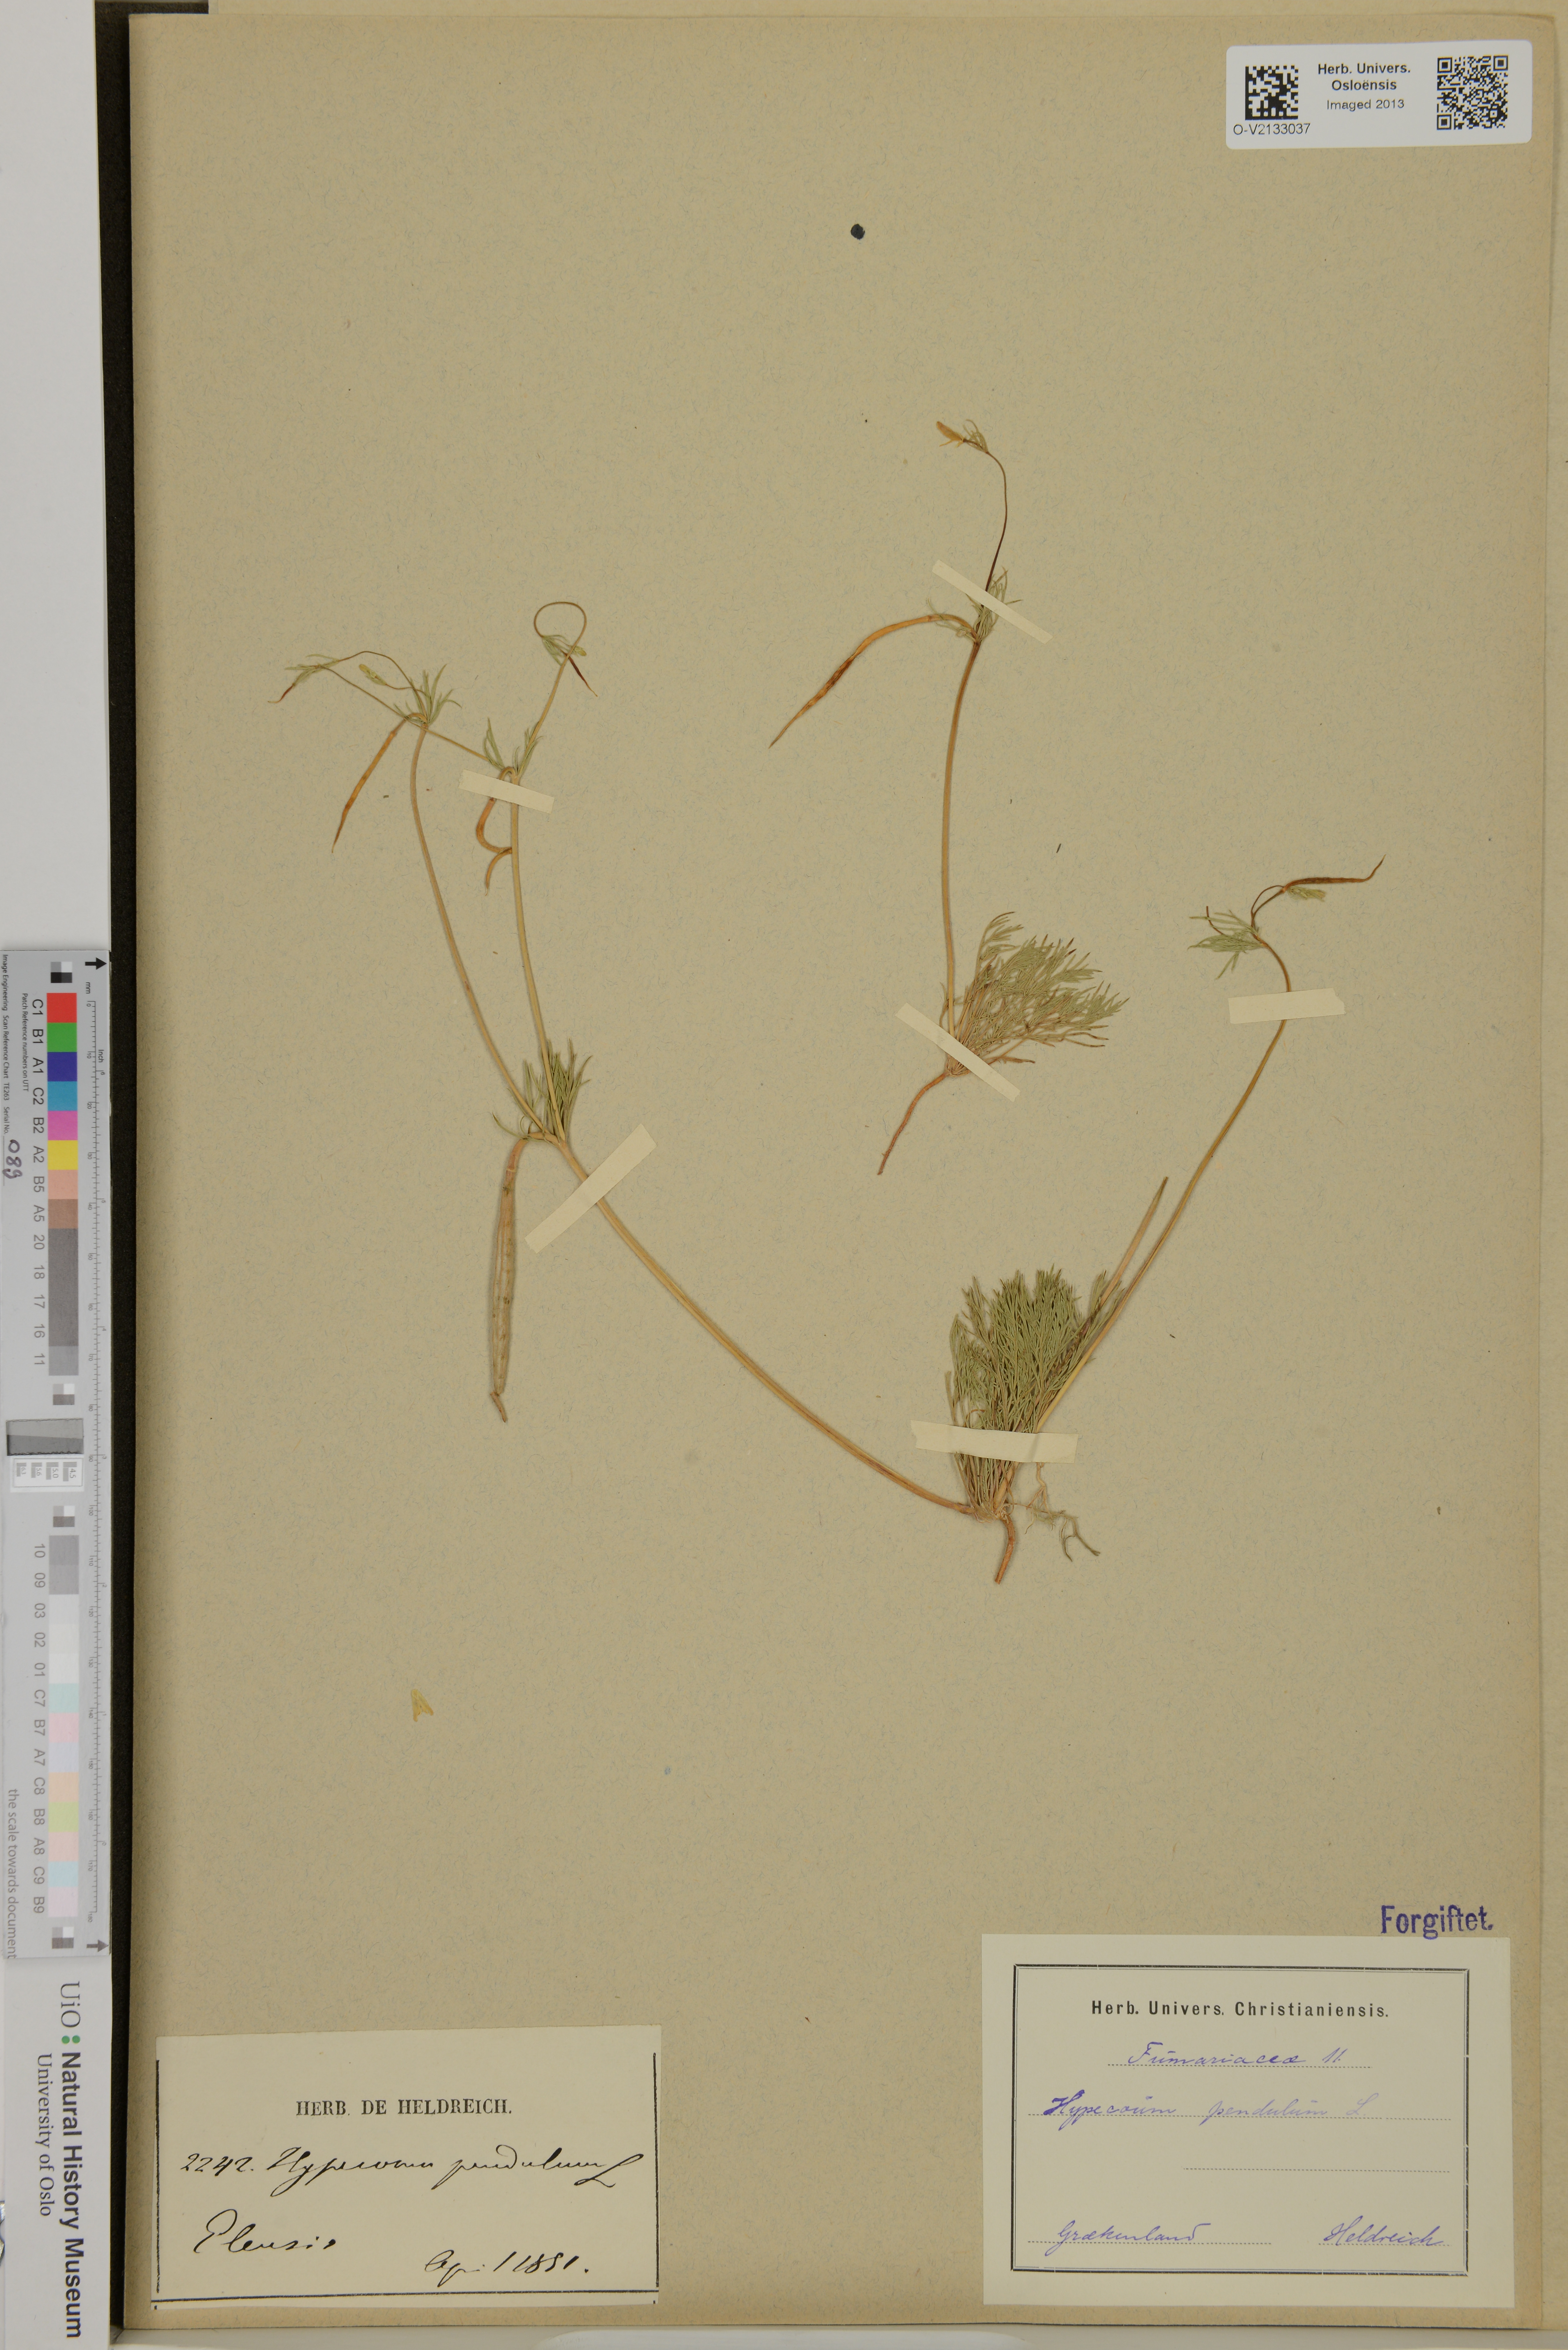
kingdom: Plantae
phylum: Tracheophyta
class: Magnoliopsida
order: Ranunculales
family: Papaveraceae
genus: Hypecoum
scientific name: Hypecoum pendulum
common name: Nodding hypecoum
